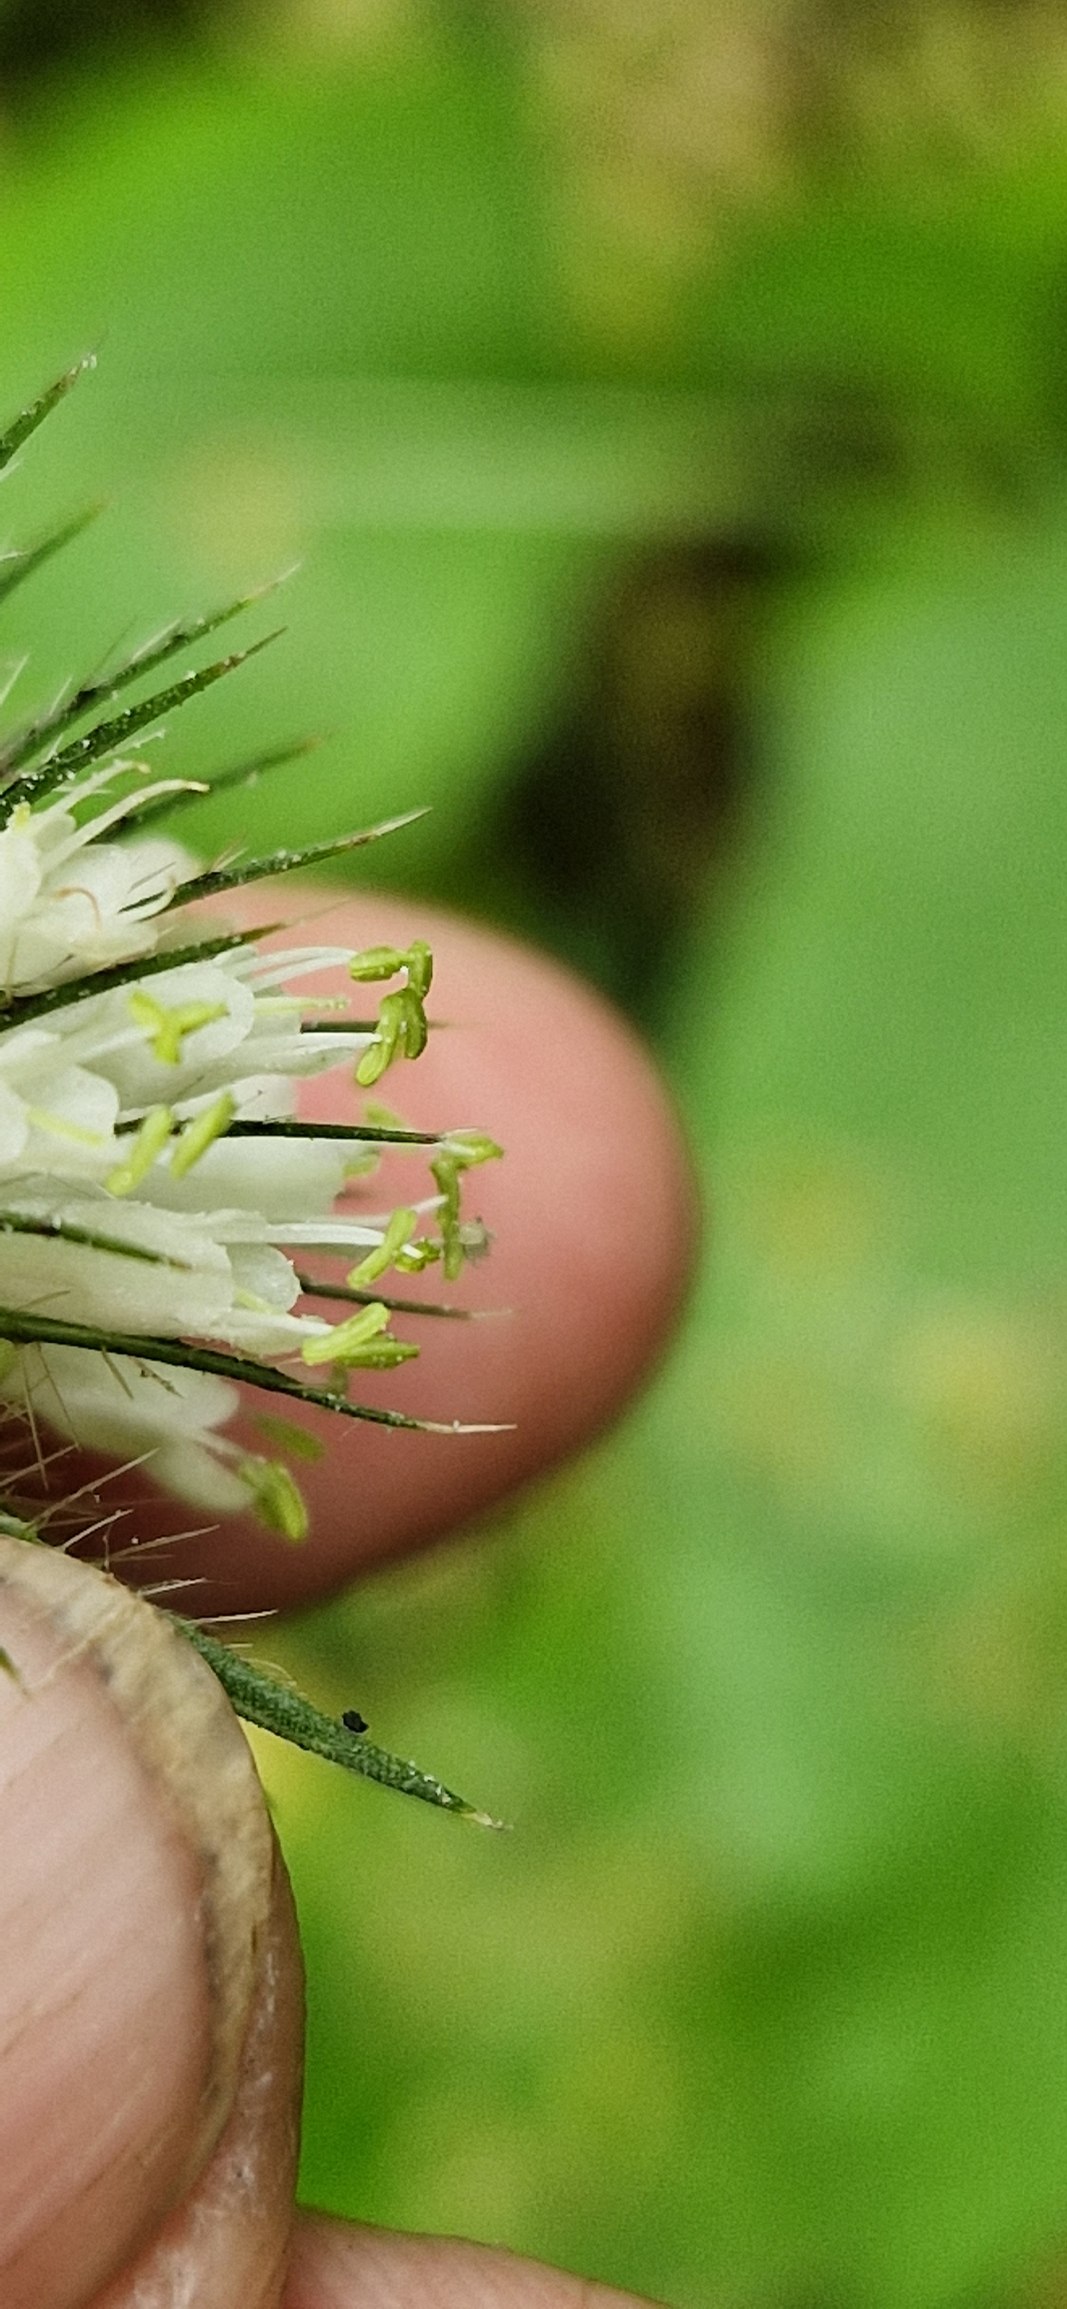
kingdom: Plantae
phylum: Tracheophyta
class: Magnoliopsida
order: Dipsacales
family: Caprifoliaceae
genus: Dipsacus
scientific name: Dipsacus strigosus
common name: Pindsvin-kartebolle
